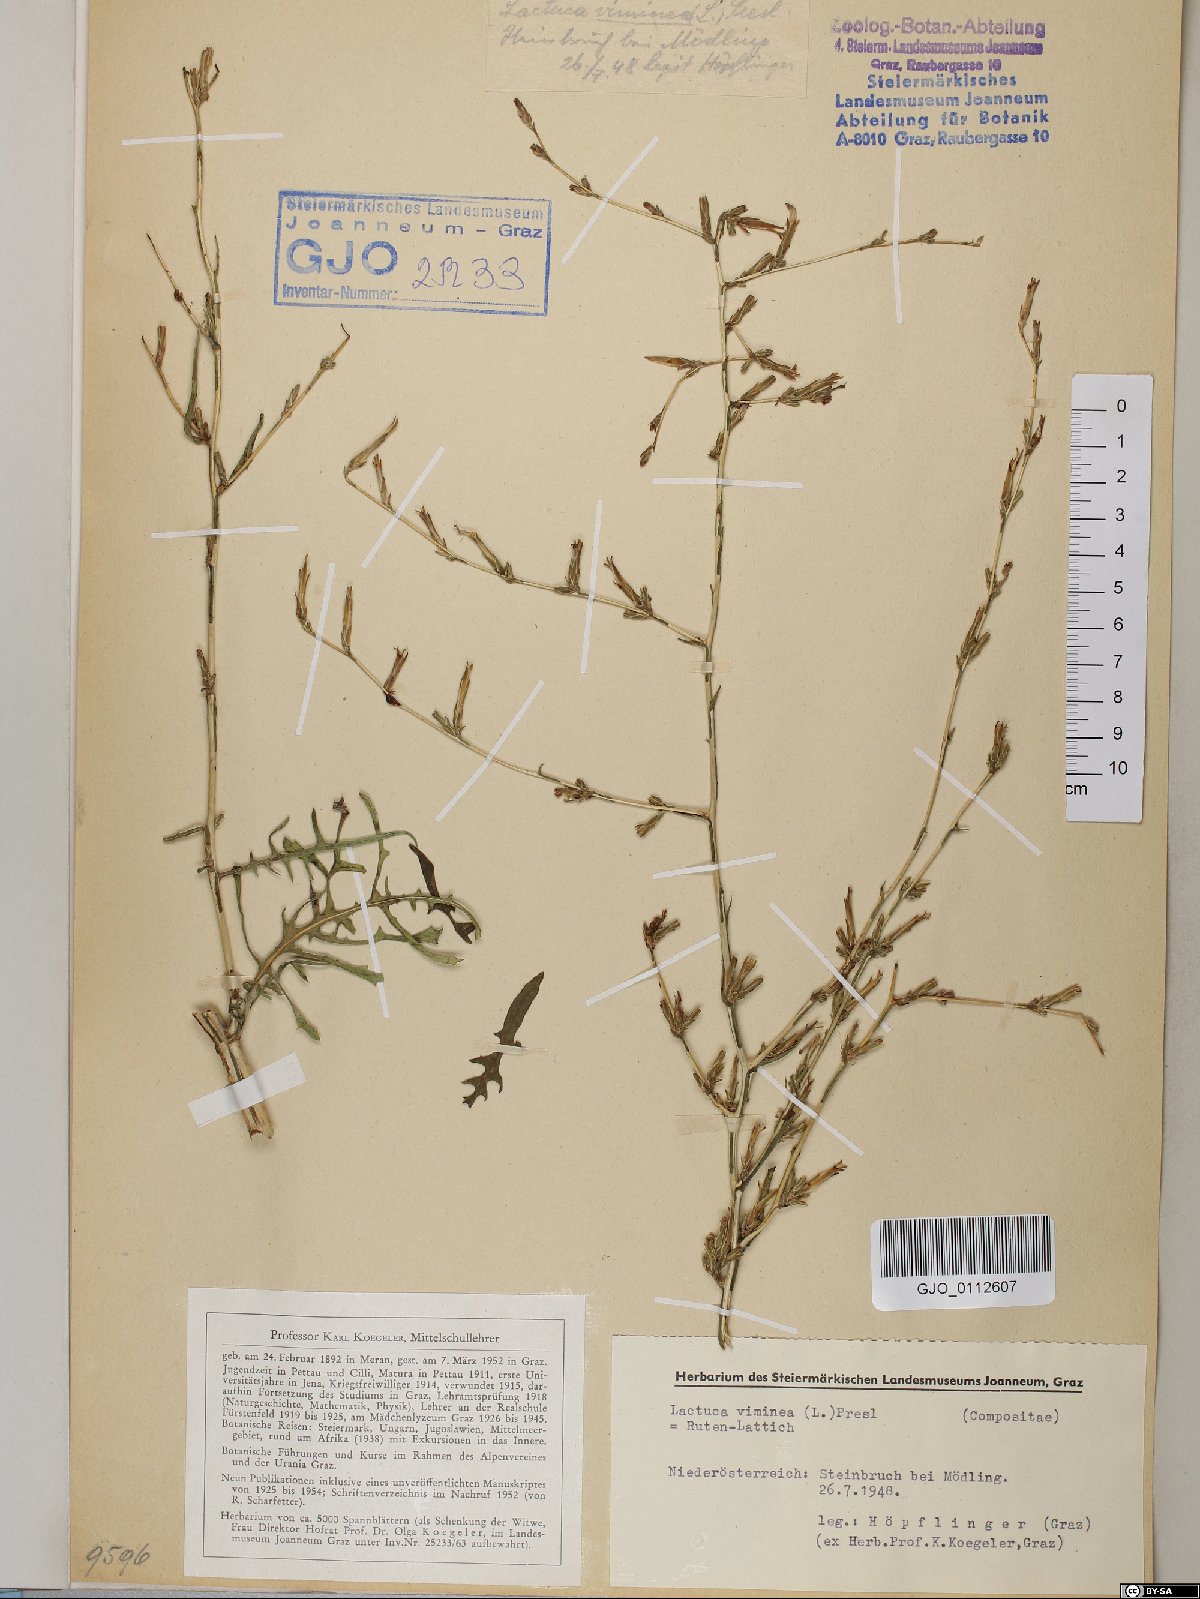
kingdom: Plantae
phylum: Tracheophyta
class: Magnoliopsida
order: Asterales
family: Asteraceae
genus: Lactuca
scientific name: Lactuca viminea
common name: Pliant lettuce
